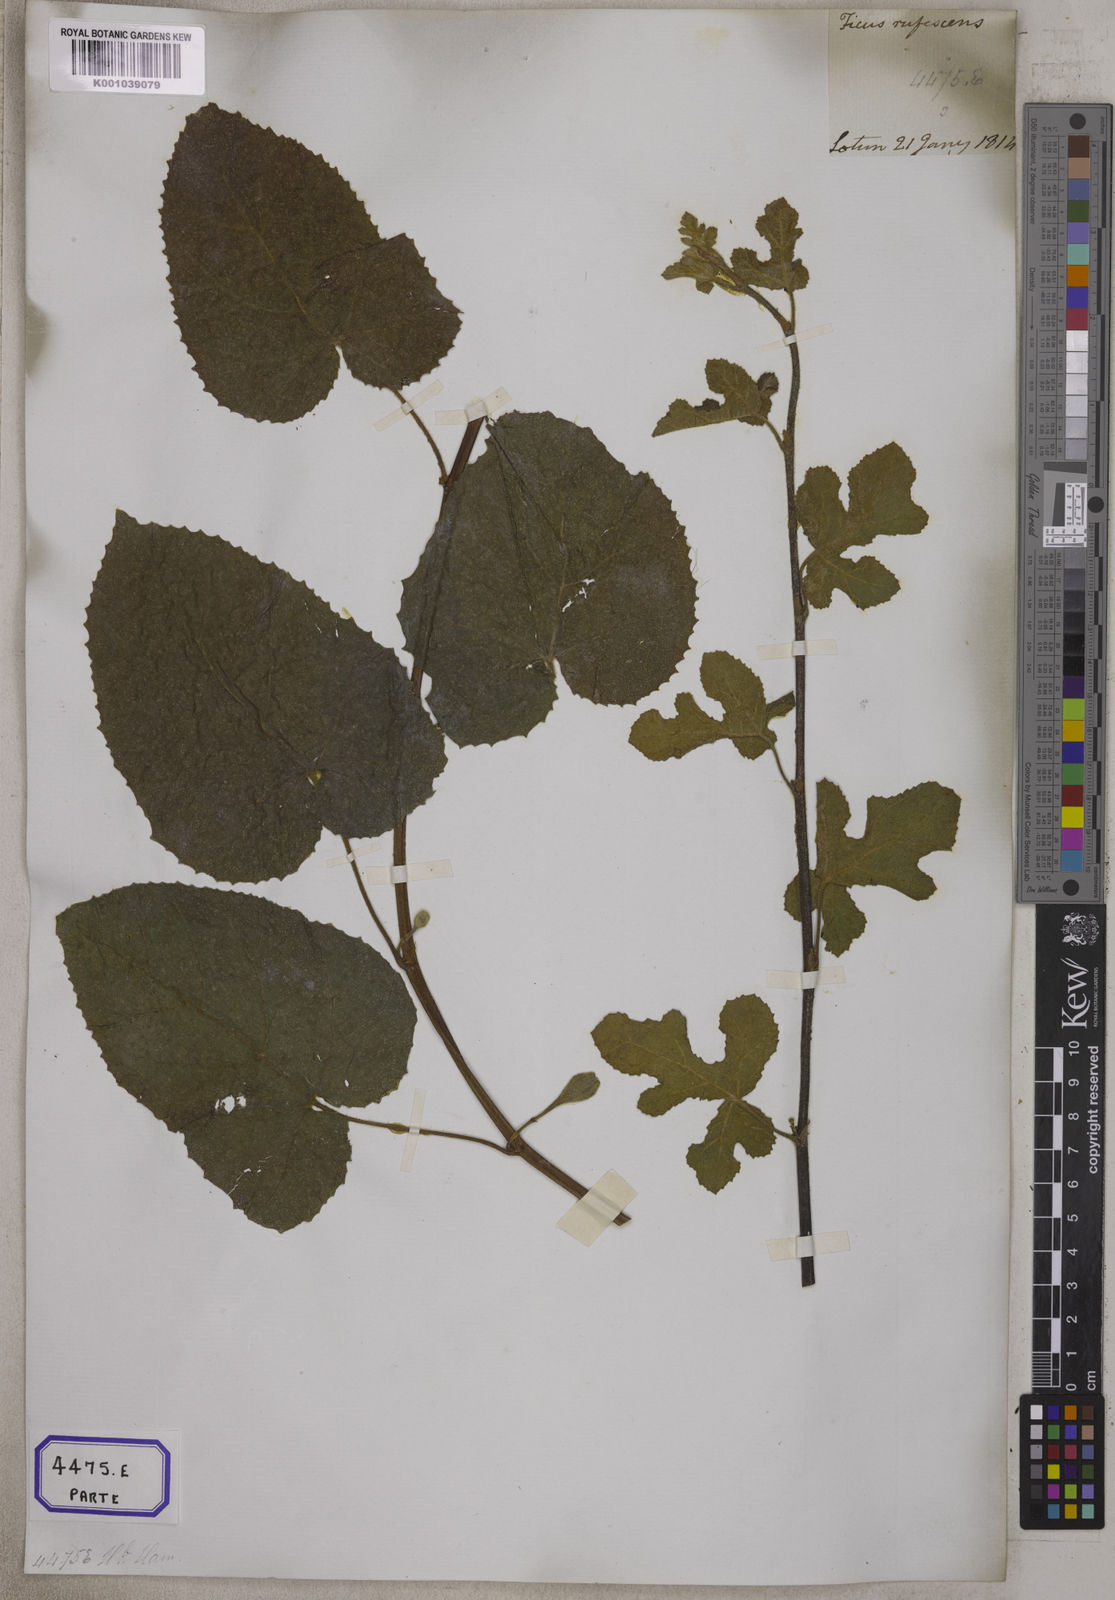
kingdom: Plantae
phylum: Tracheophyta
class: Magnoliopsida
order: Rosales
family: Moraceae
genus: Ficus
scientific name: Ficus
